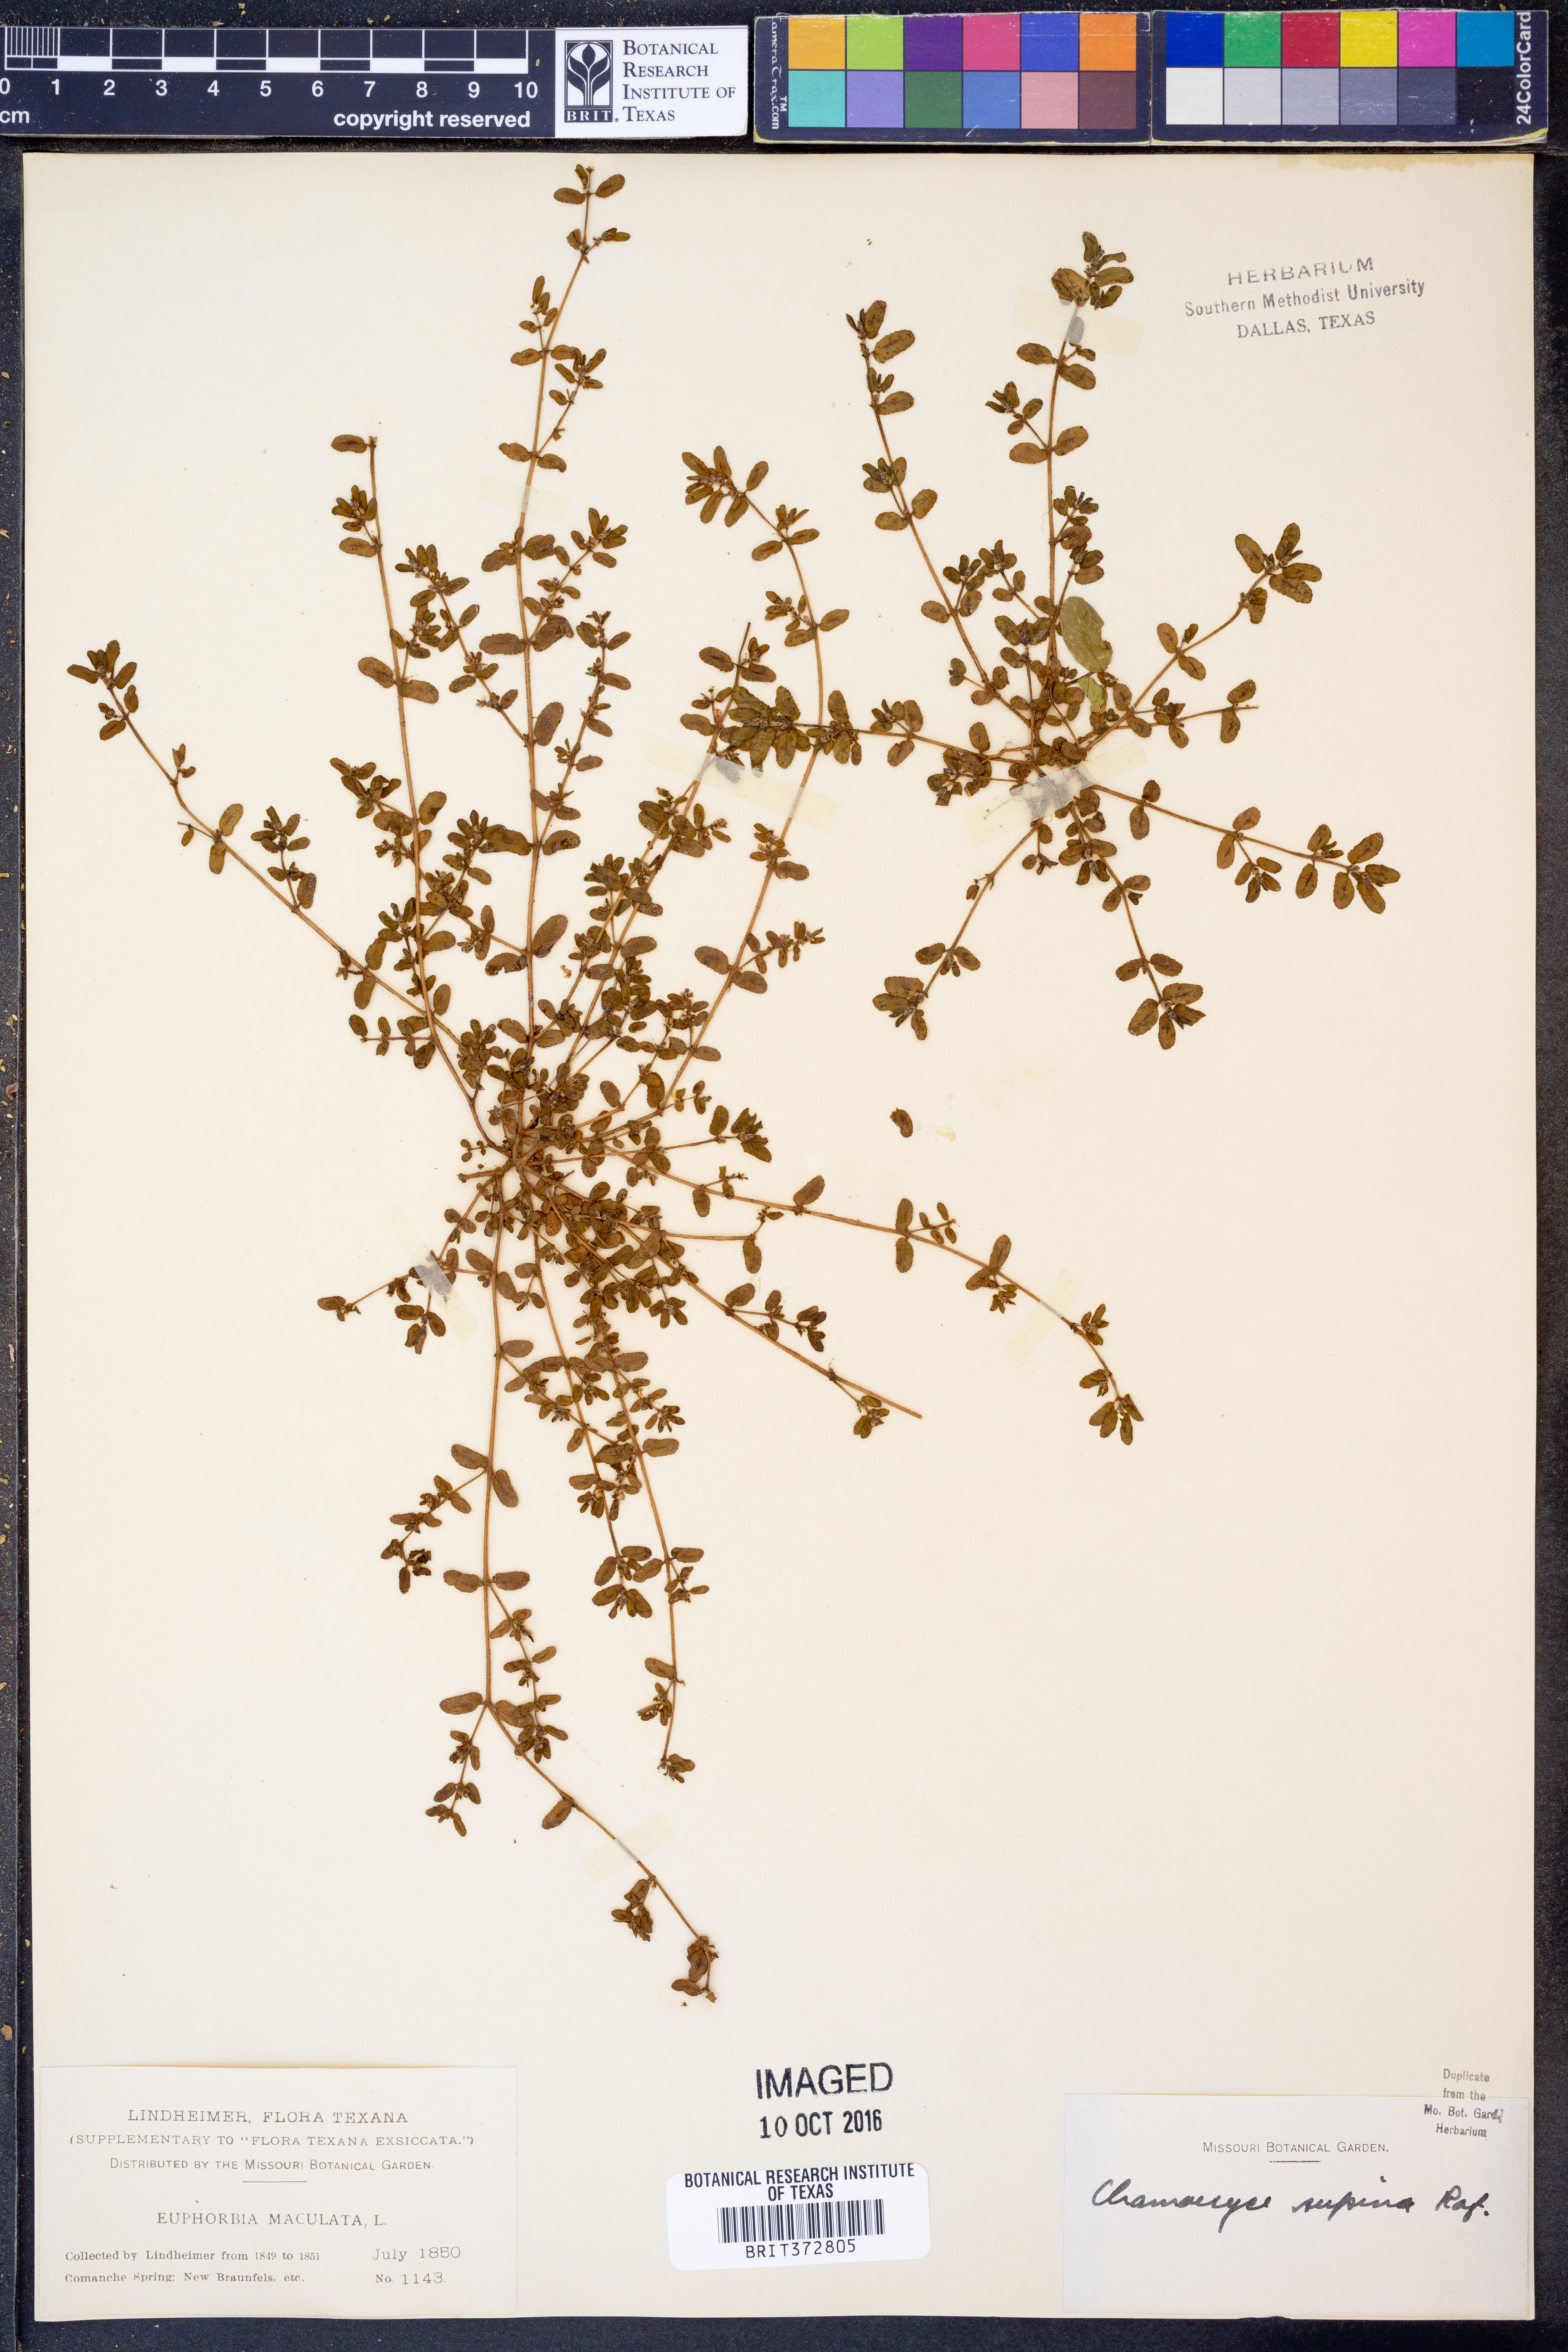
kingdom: Plantae
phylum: Tracheophyta
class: Magnoliopsida
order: Malpighiales
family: Euphorbiaceae
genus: Euphorbia
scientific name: Euphorbia maculata
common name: Spotted spurge
